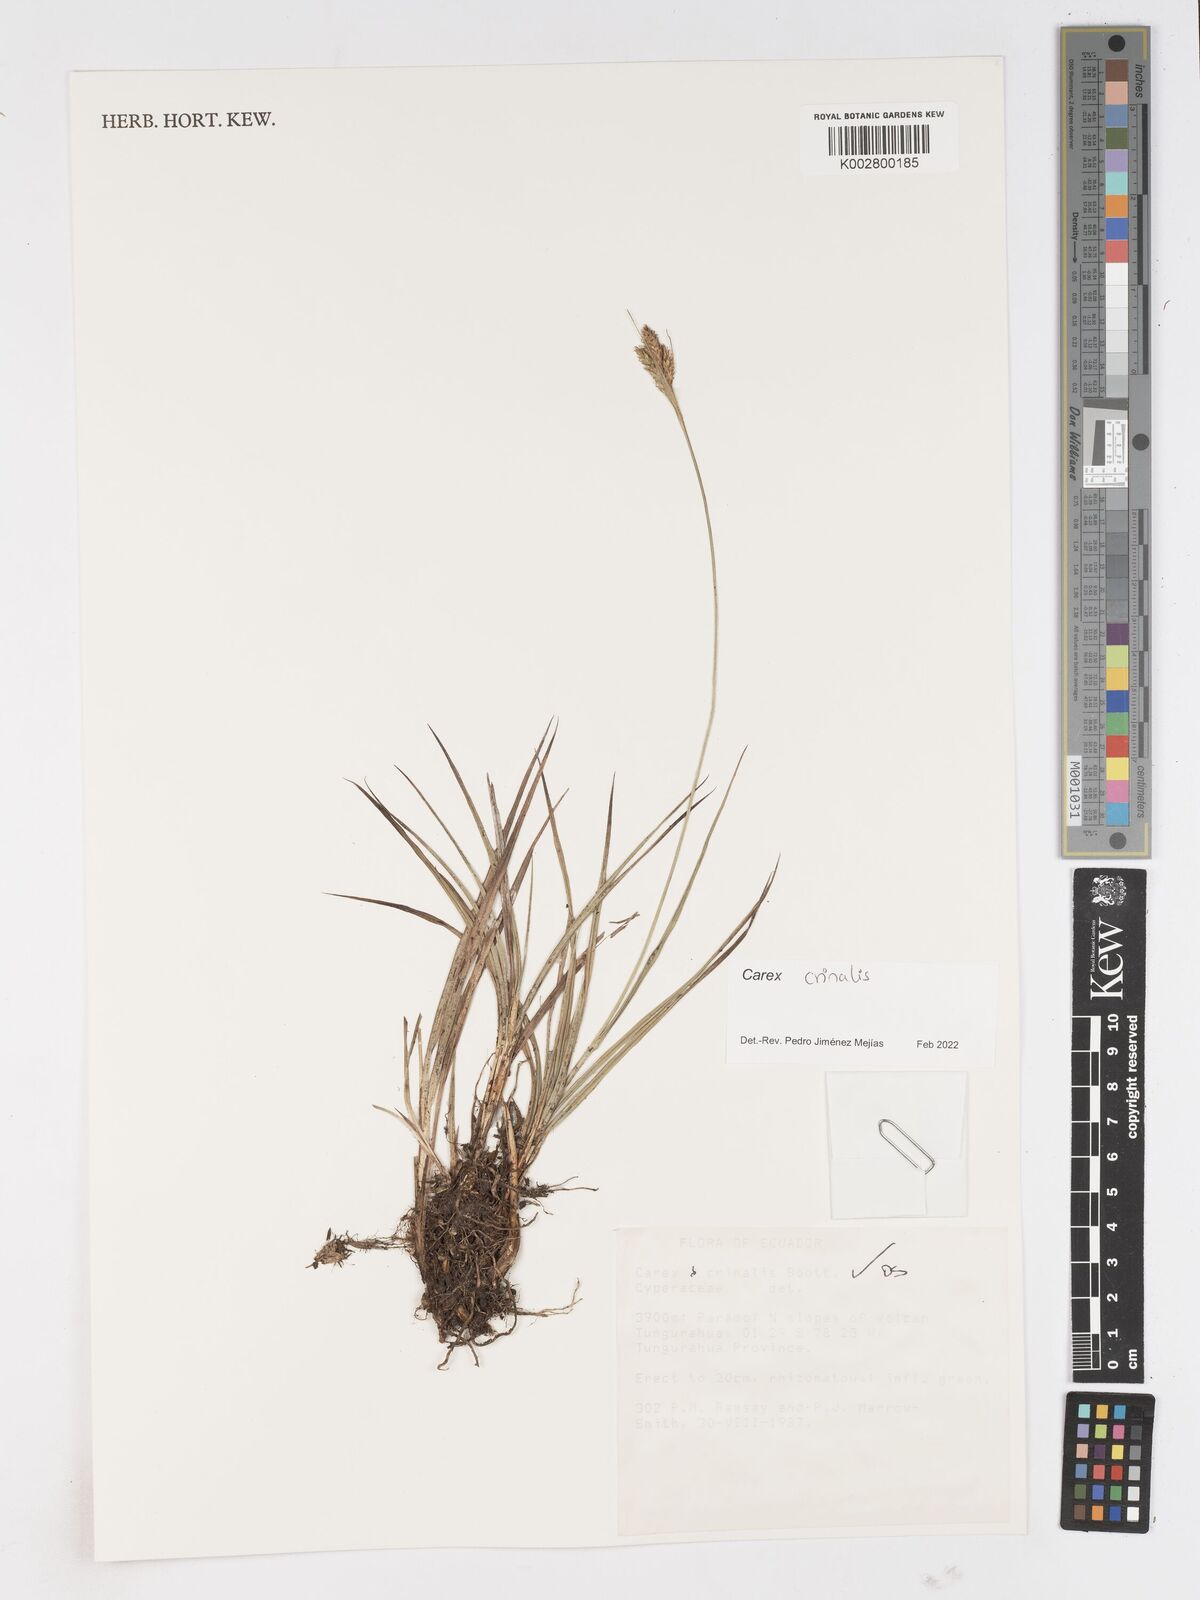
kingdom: Plantae
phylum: Tracheophyta
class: Liliopsida
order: Poales
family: Cyperaceae
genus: Carex
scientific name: Carex crinalis
